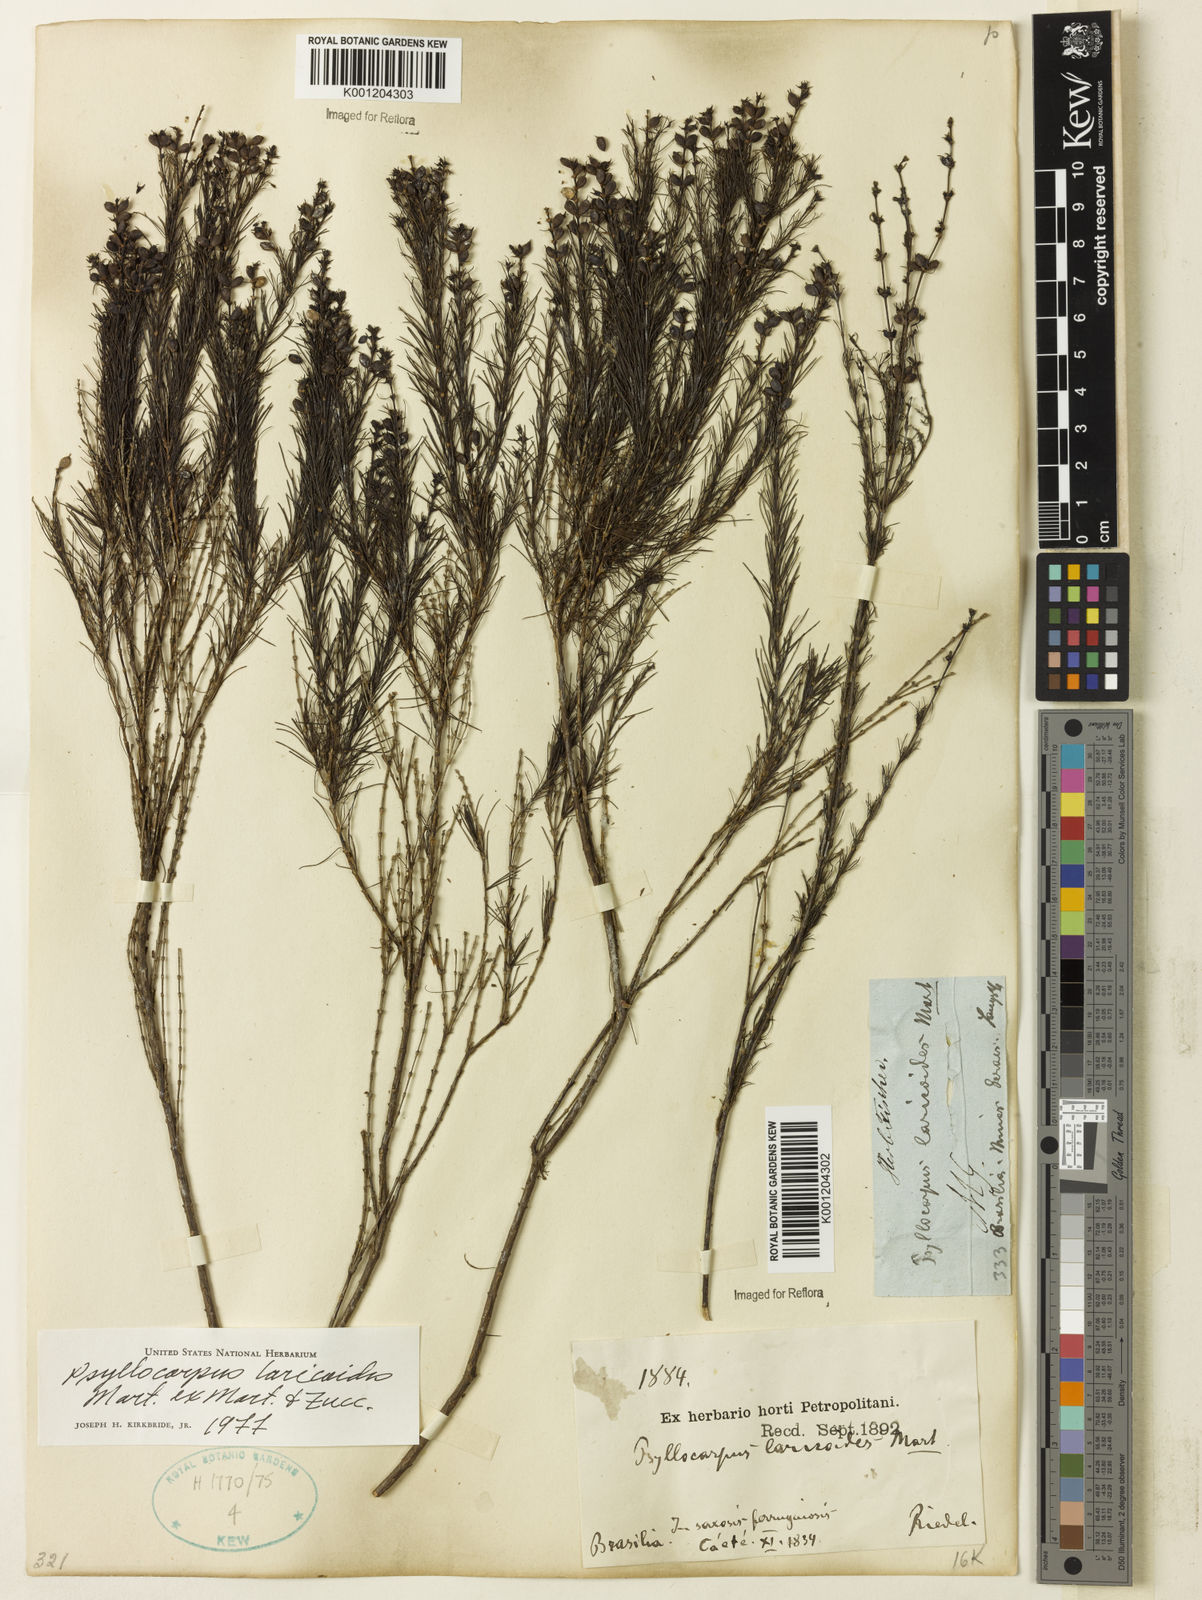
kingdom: Plantae
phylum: Tracheophyta
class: Magnoliopsida
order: Gentianales
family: Rubiaceae
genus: Psyllocarpus
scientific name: Psyllocarpus laricoides
